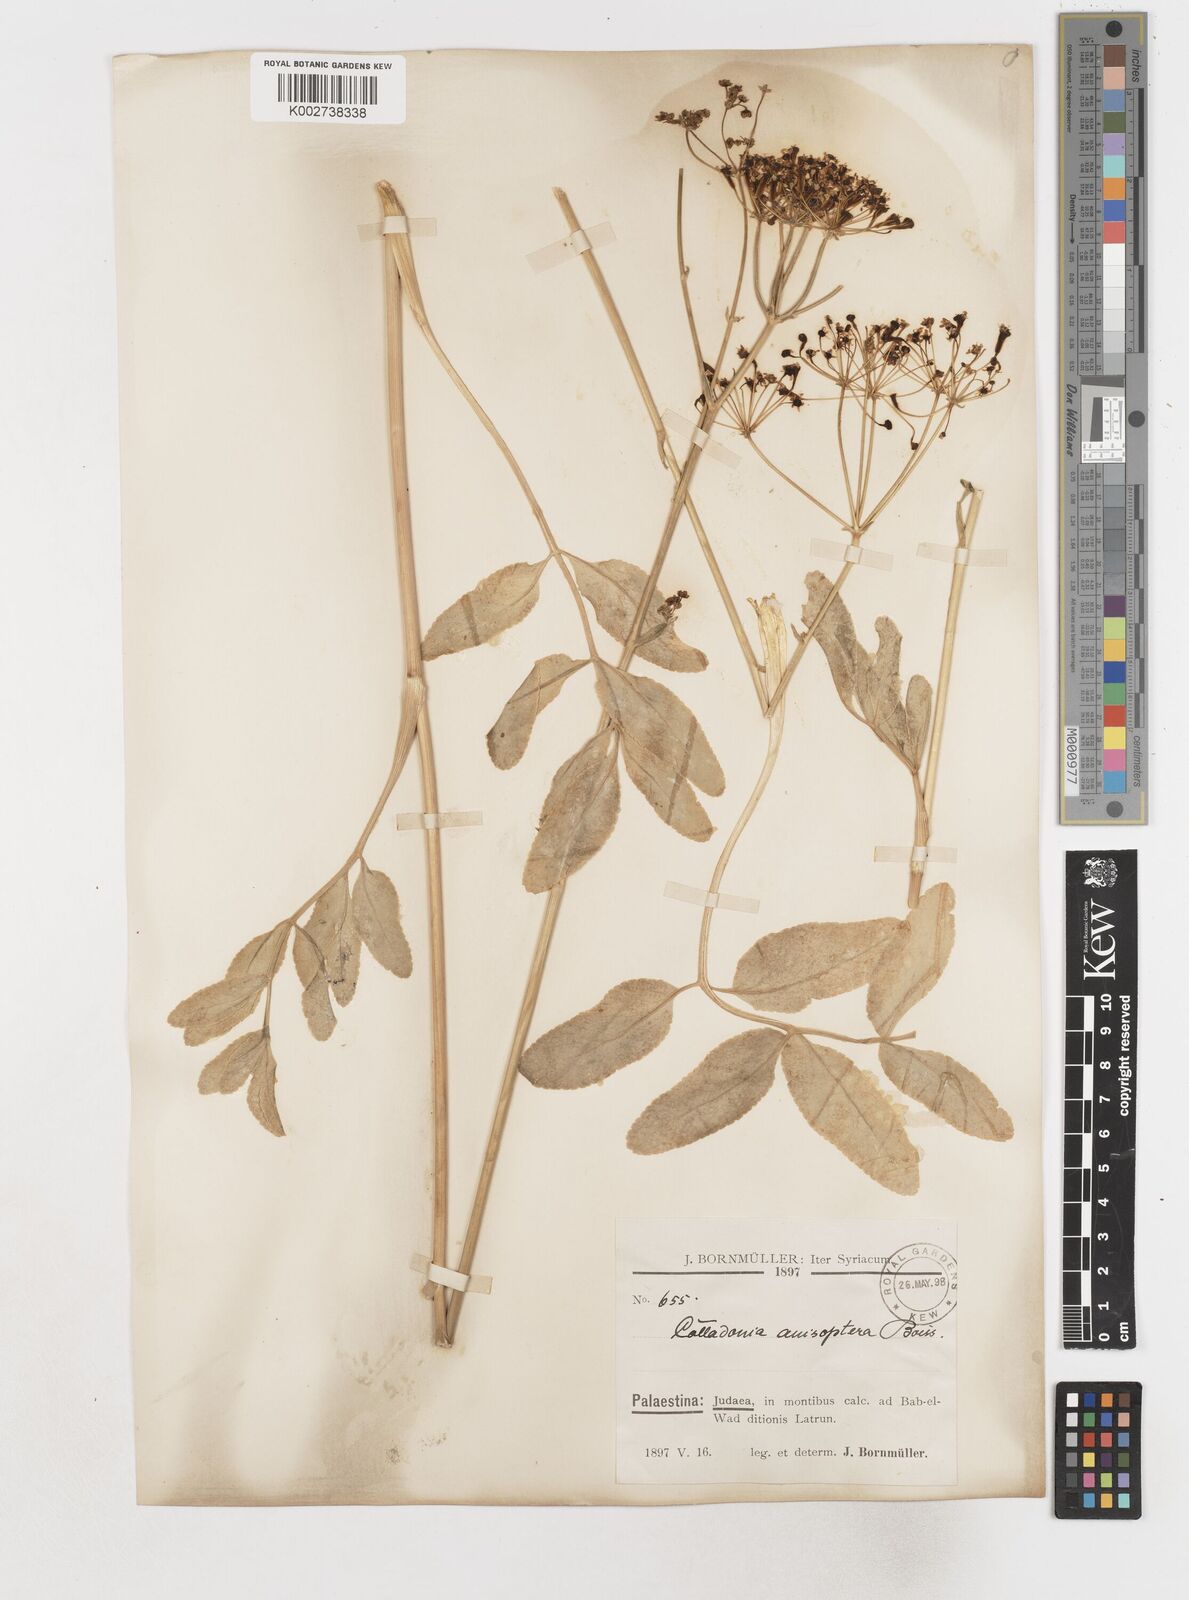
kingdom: Plantae
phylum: Tracheophyta
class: Magnoliopsida
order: Apiales
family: Apiaceae
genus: Heptaptera
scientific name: Heptaptera
